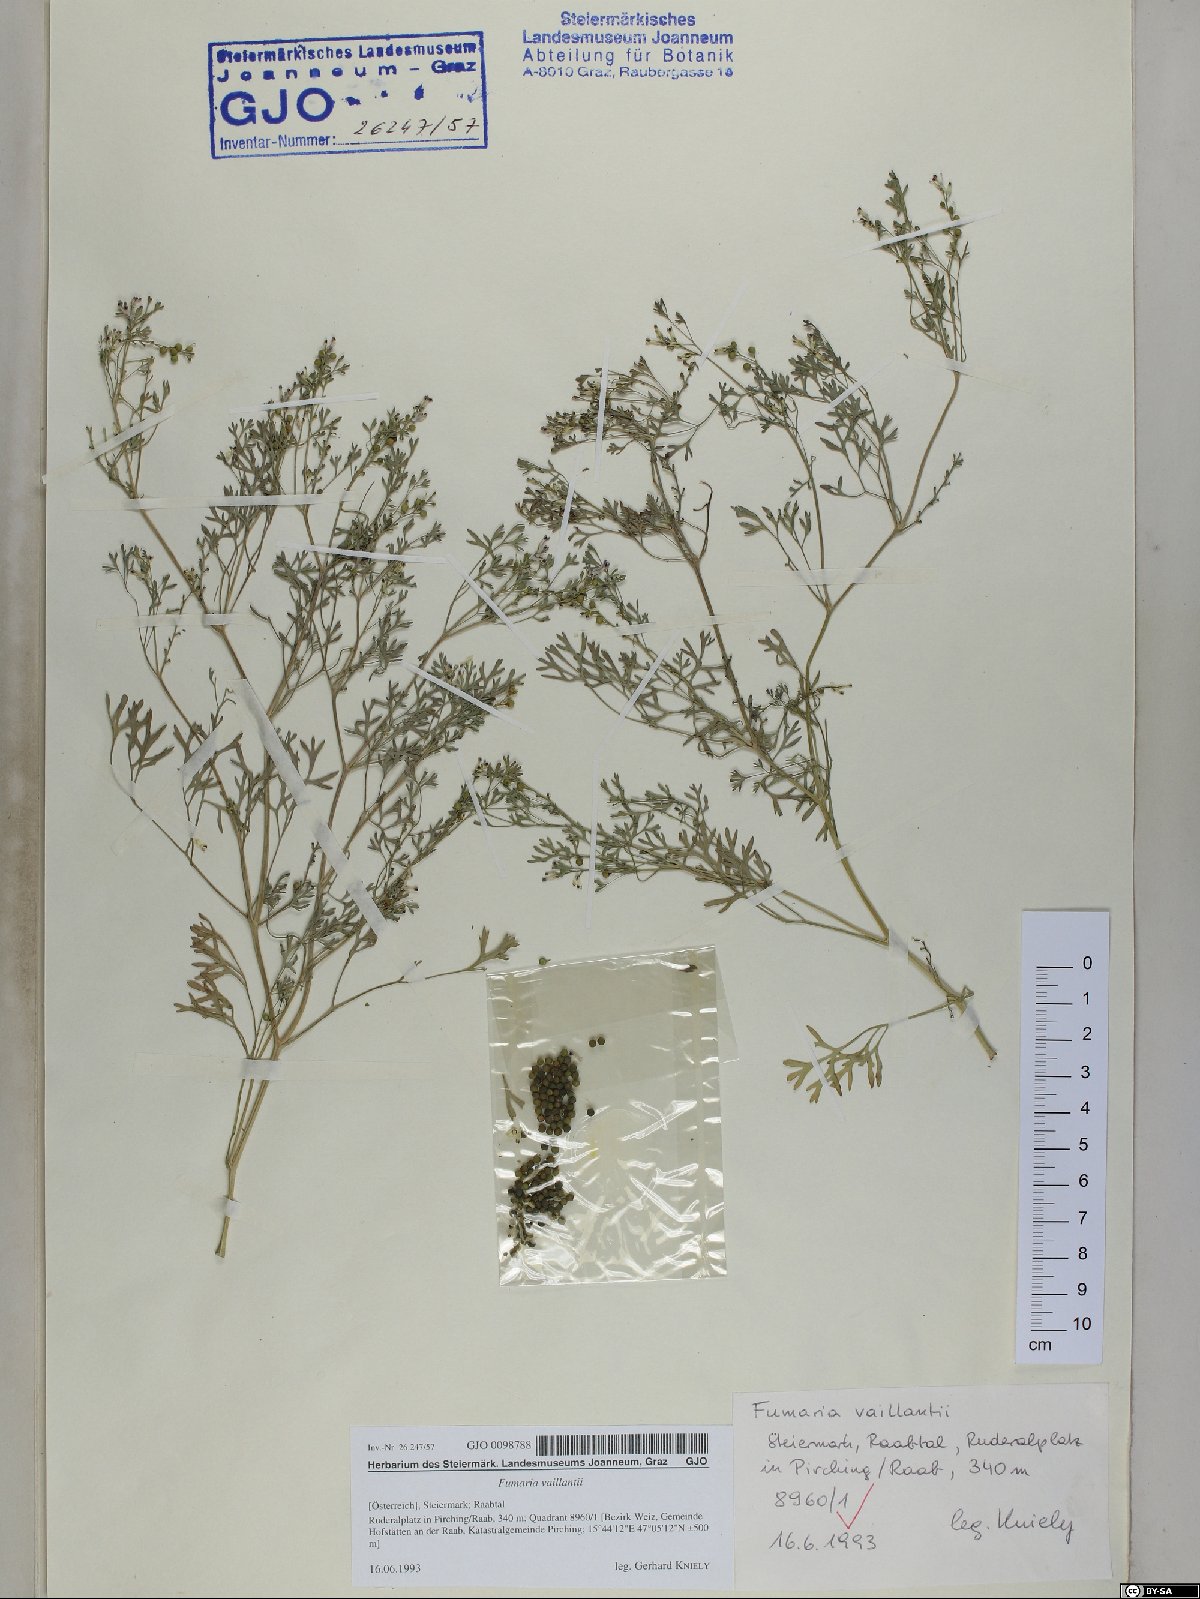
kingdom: Plantae
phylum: Tracheophyta
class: Magnoliopsida
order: Ranunculales
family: Papaveraceae
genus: Fumaria
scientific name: Fumaria vaillantii
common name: Few-flowered fumitory
